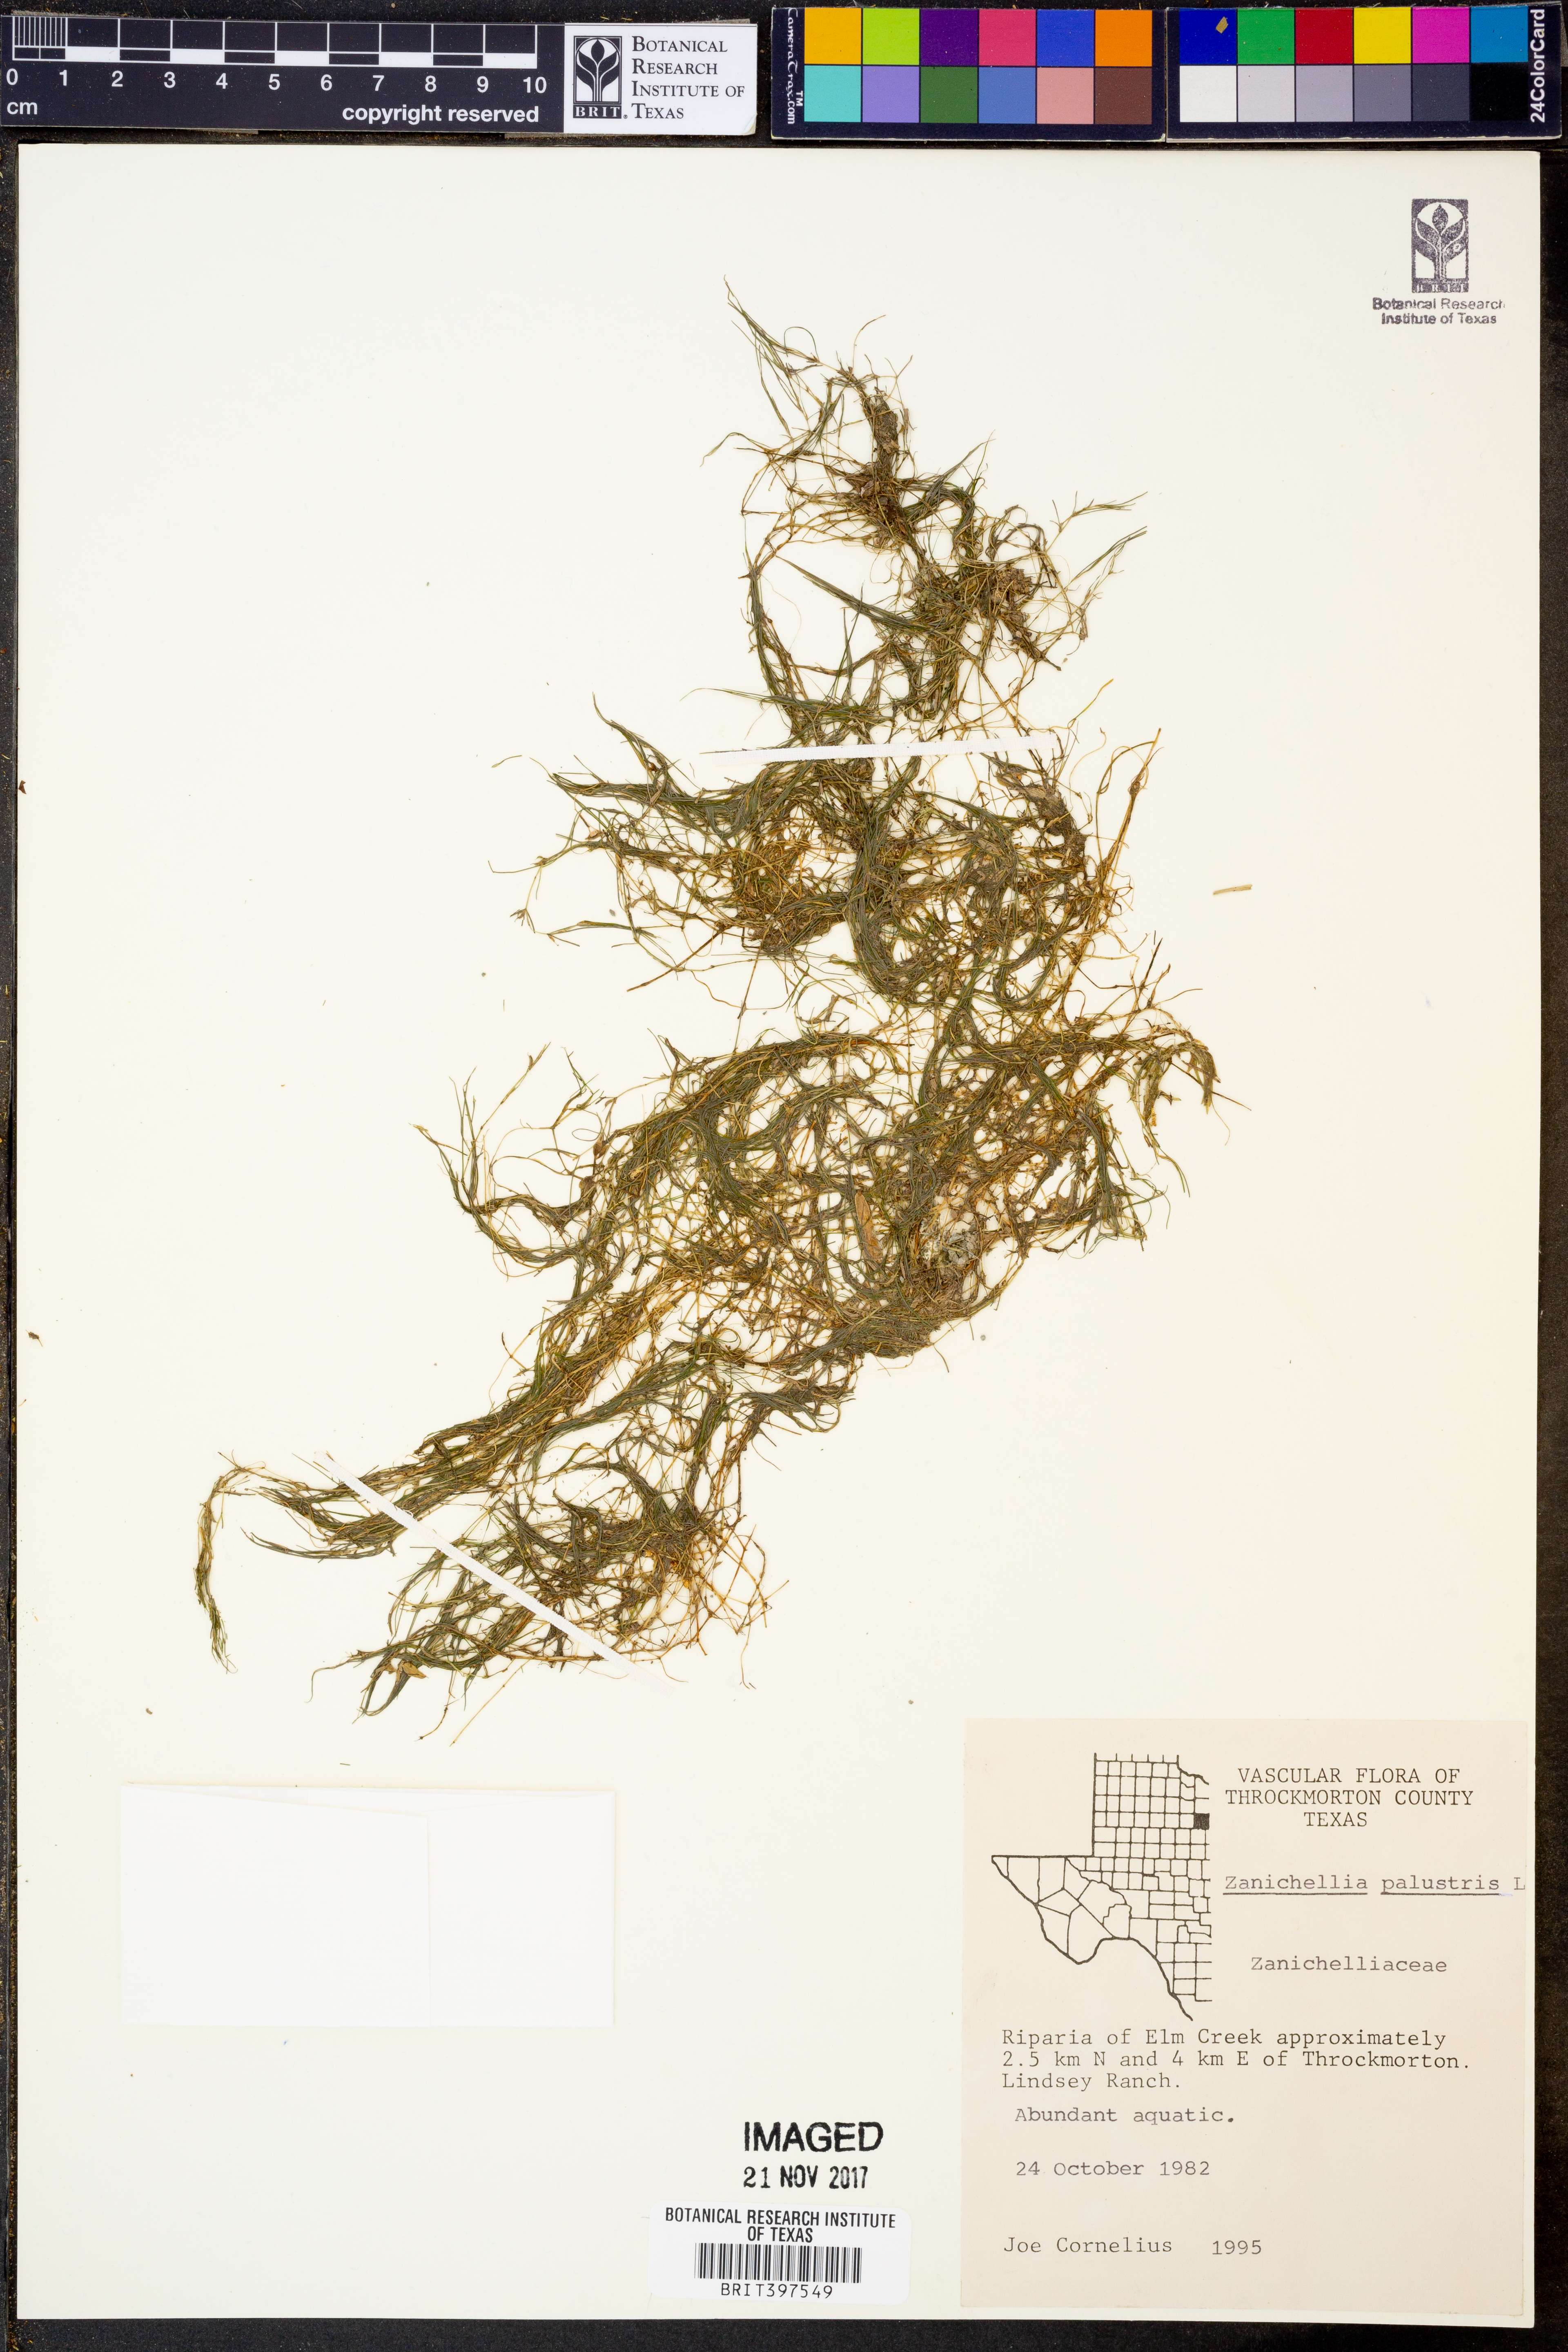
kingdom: Plantae
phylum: Tracheophyta
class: Liliopsida
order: Alismatales
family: Potamogetonaceae
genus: Zannichellia
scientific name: Zannichellia palustris
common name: Horned pondweed
